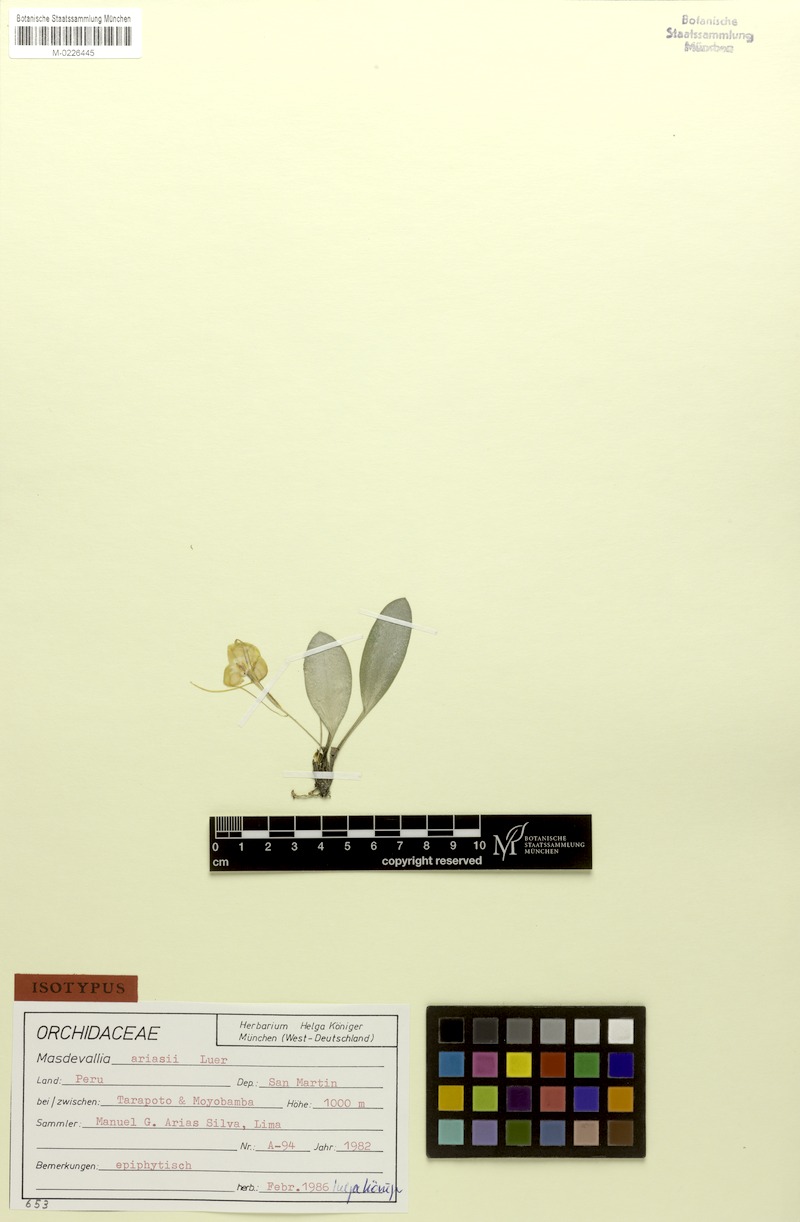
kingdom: Plantae
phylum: Tracheophyta
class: Liliopsida
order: Asparagales
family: Orchidaceae
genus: Masdevallia
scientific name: Masdevallia ariasii
